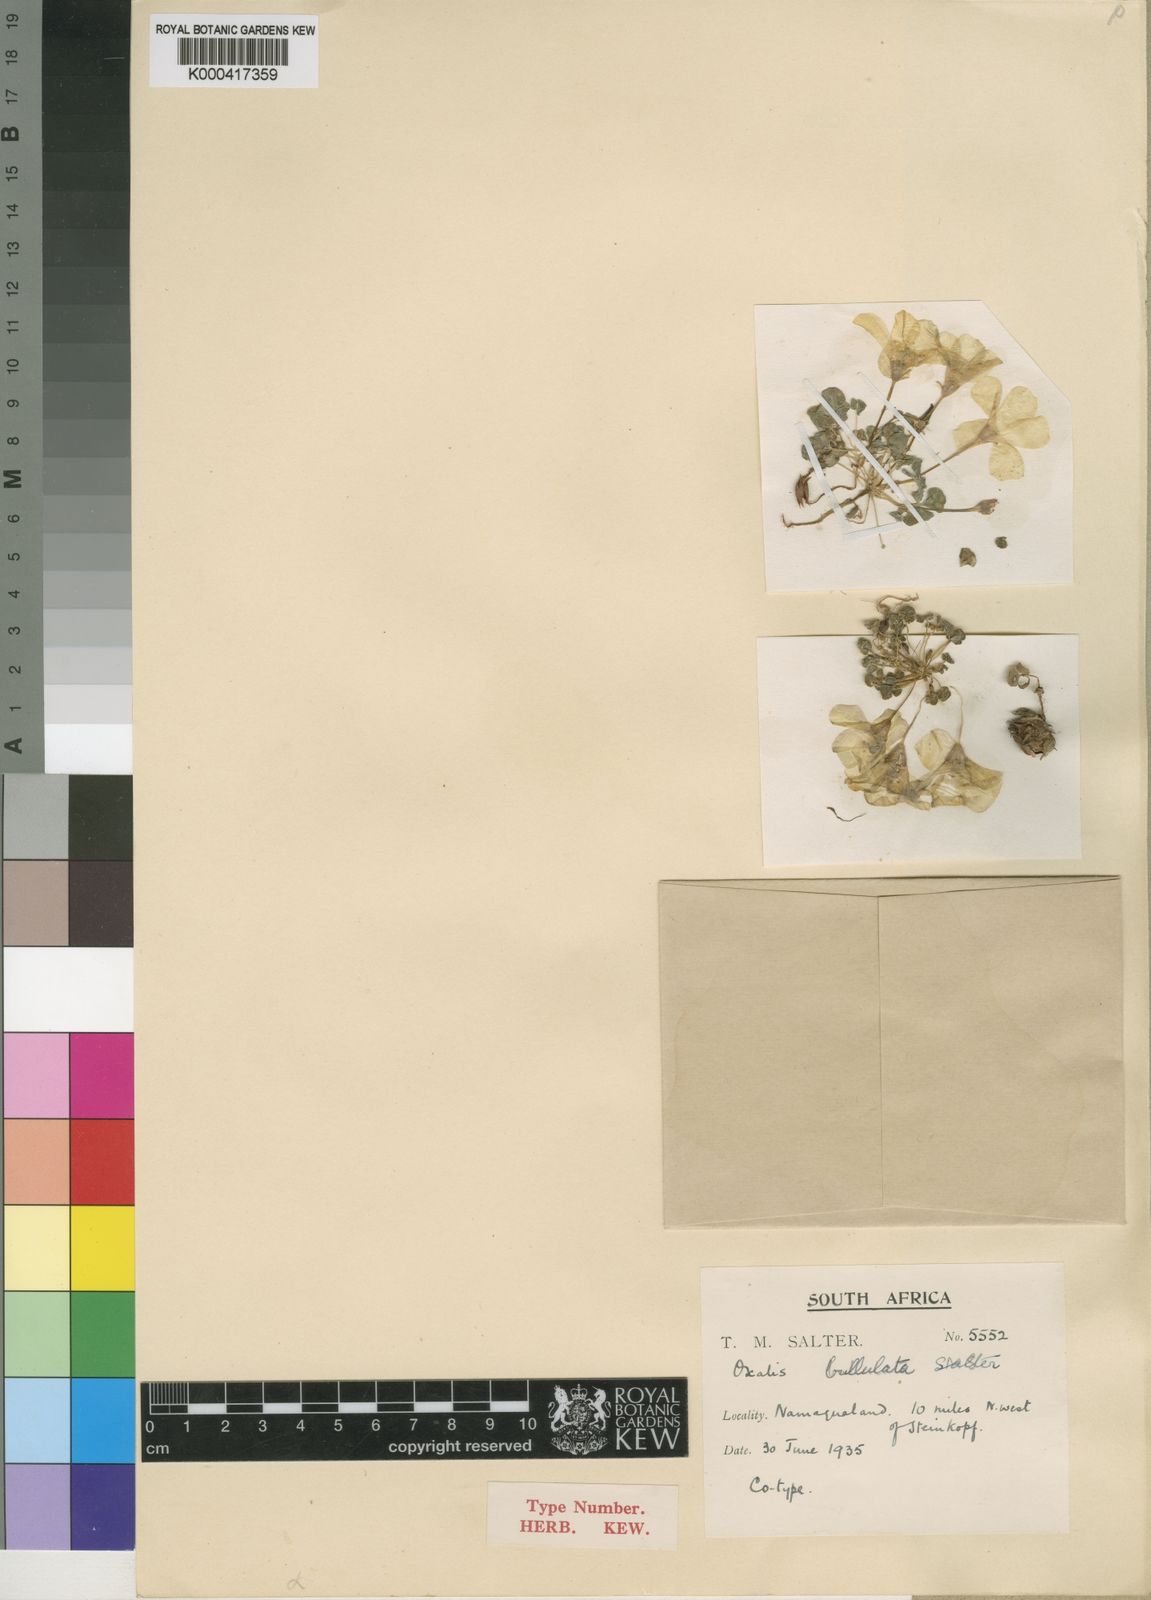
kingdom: Plantae
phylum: Tracheophyta
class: Magnoliopsida
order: Oxalidales
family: Oxalidaceae
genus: Oxalis
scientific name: Oxalis pulchella
